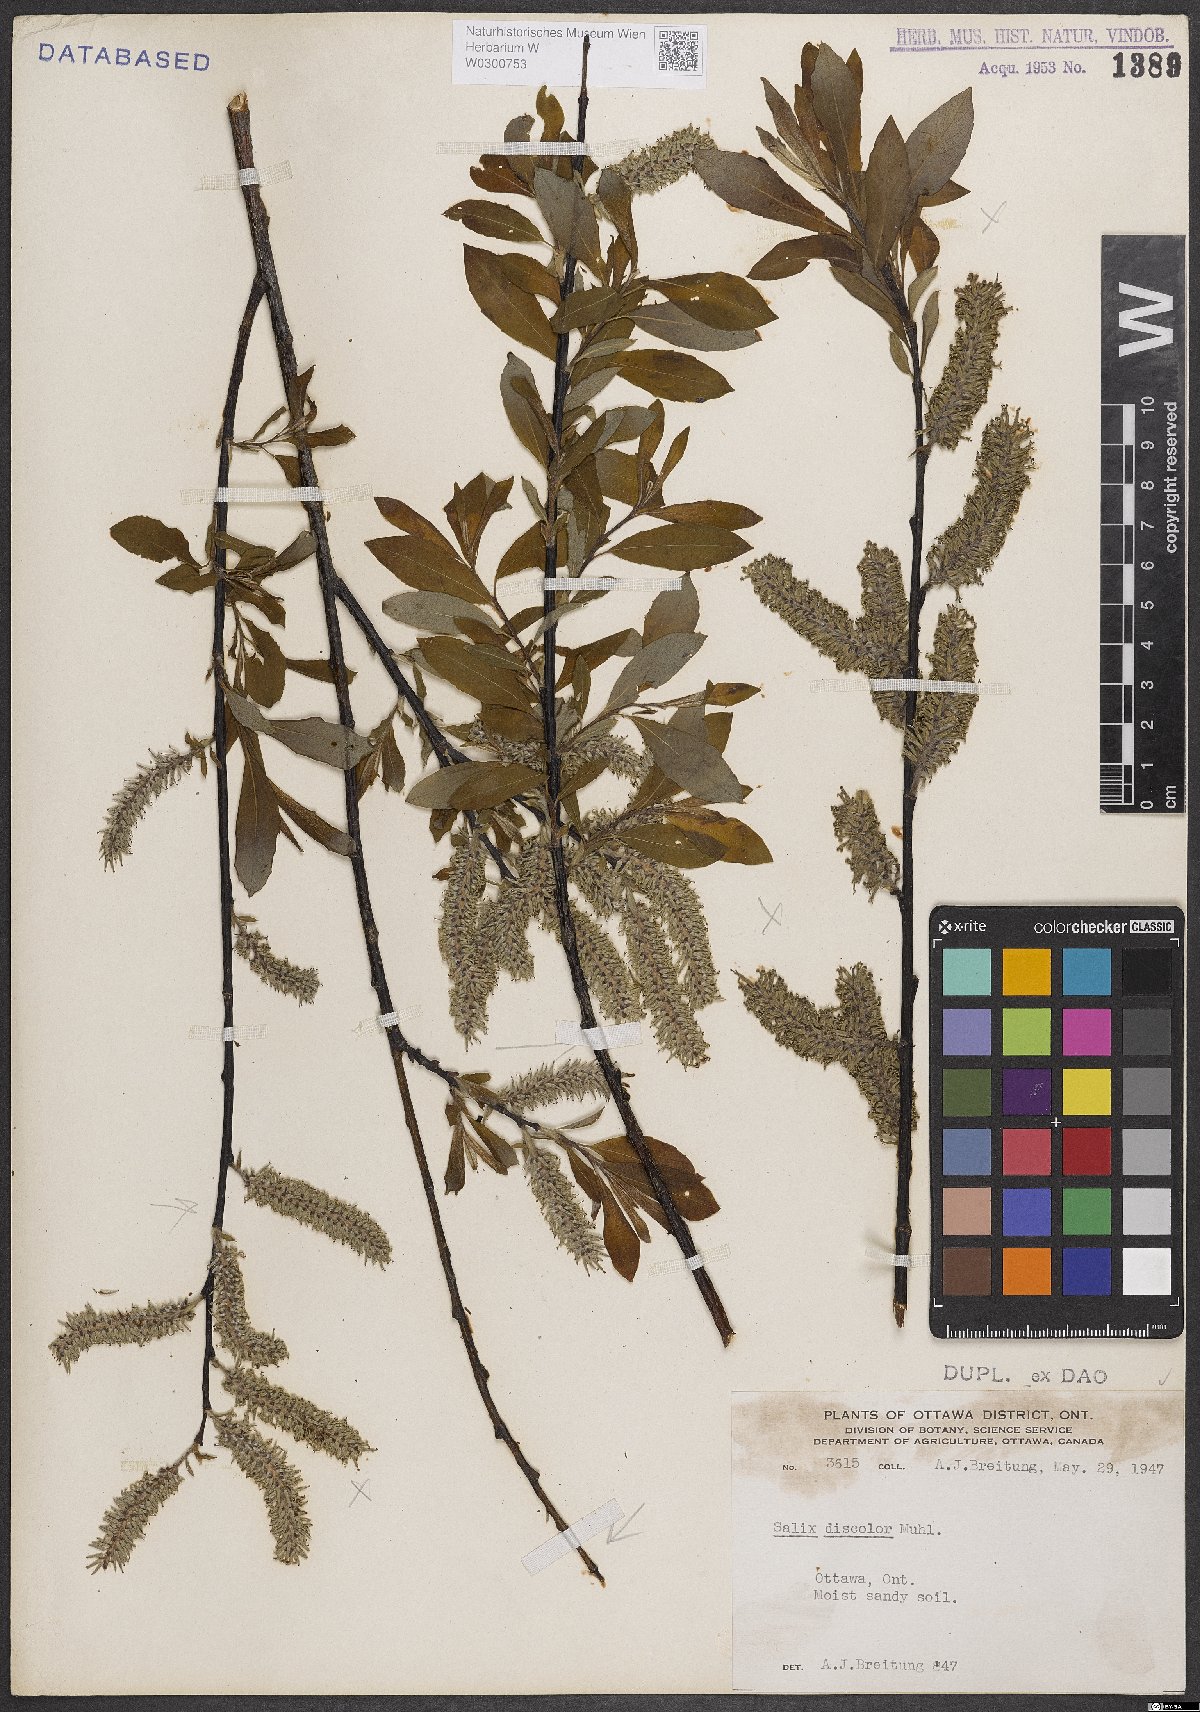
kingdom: Plantae
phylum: Tracheophyta
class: Magnoliopsida
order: Malpighiales
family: Salicaceae
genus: Salix
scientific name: Salix discolor
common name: Glaucous willow
